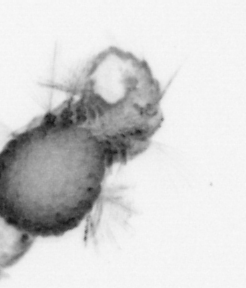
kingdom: Animalia
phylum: Annelida
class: Polychaeta
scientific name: Polychaeta
